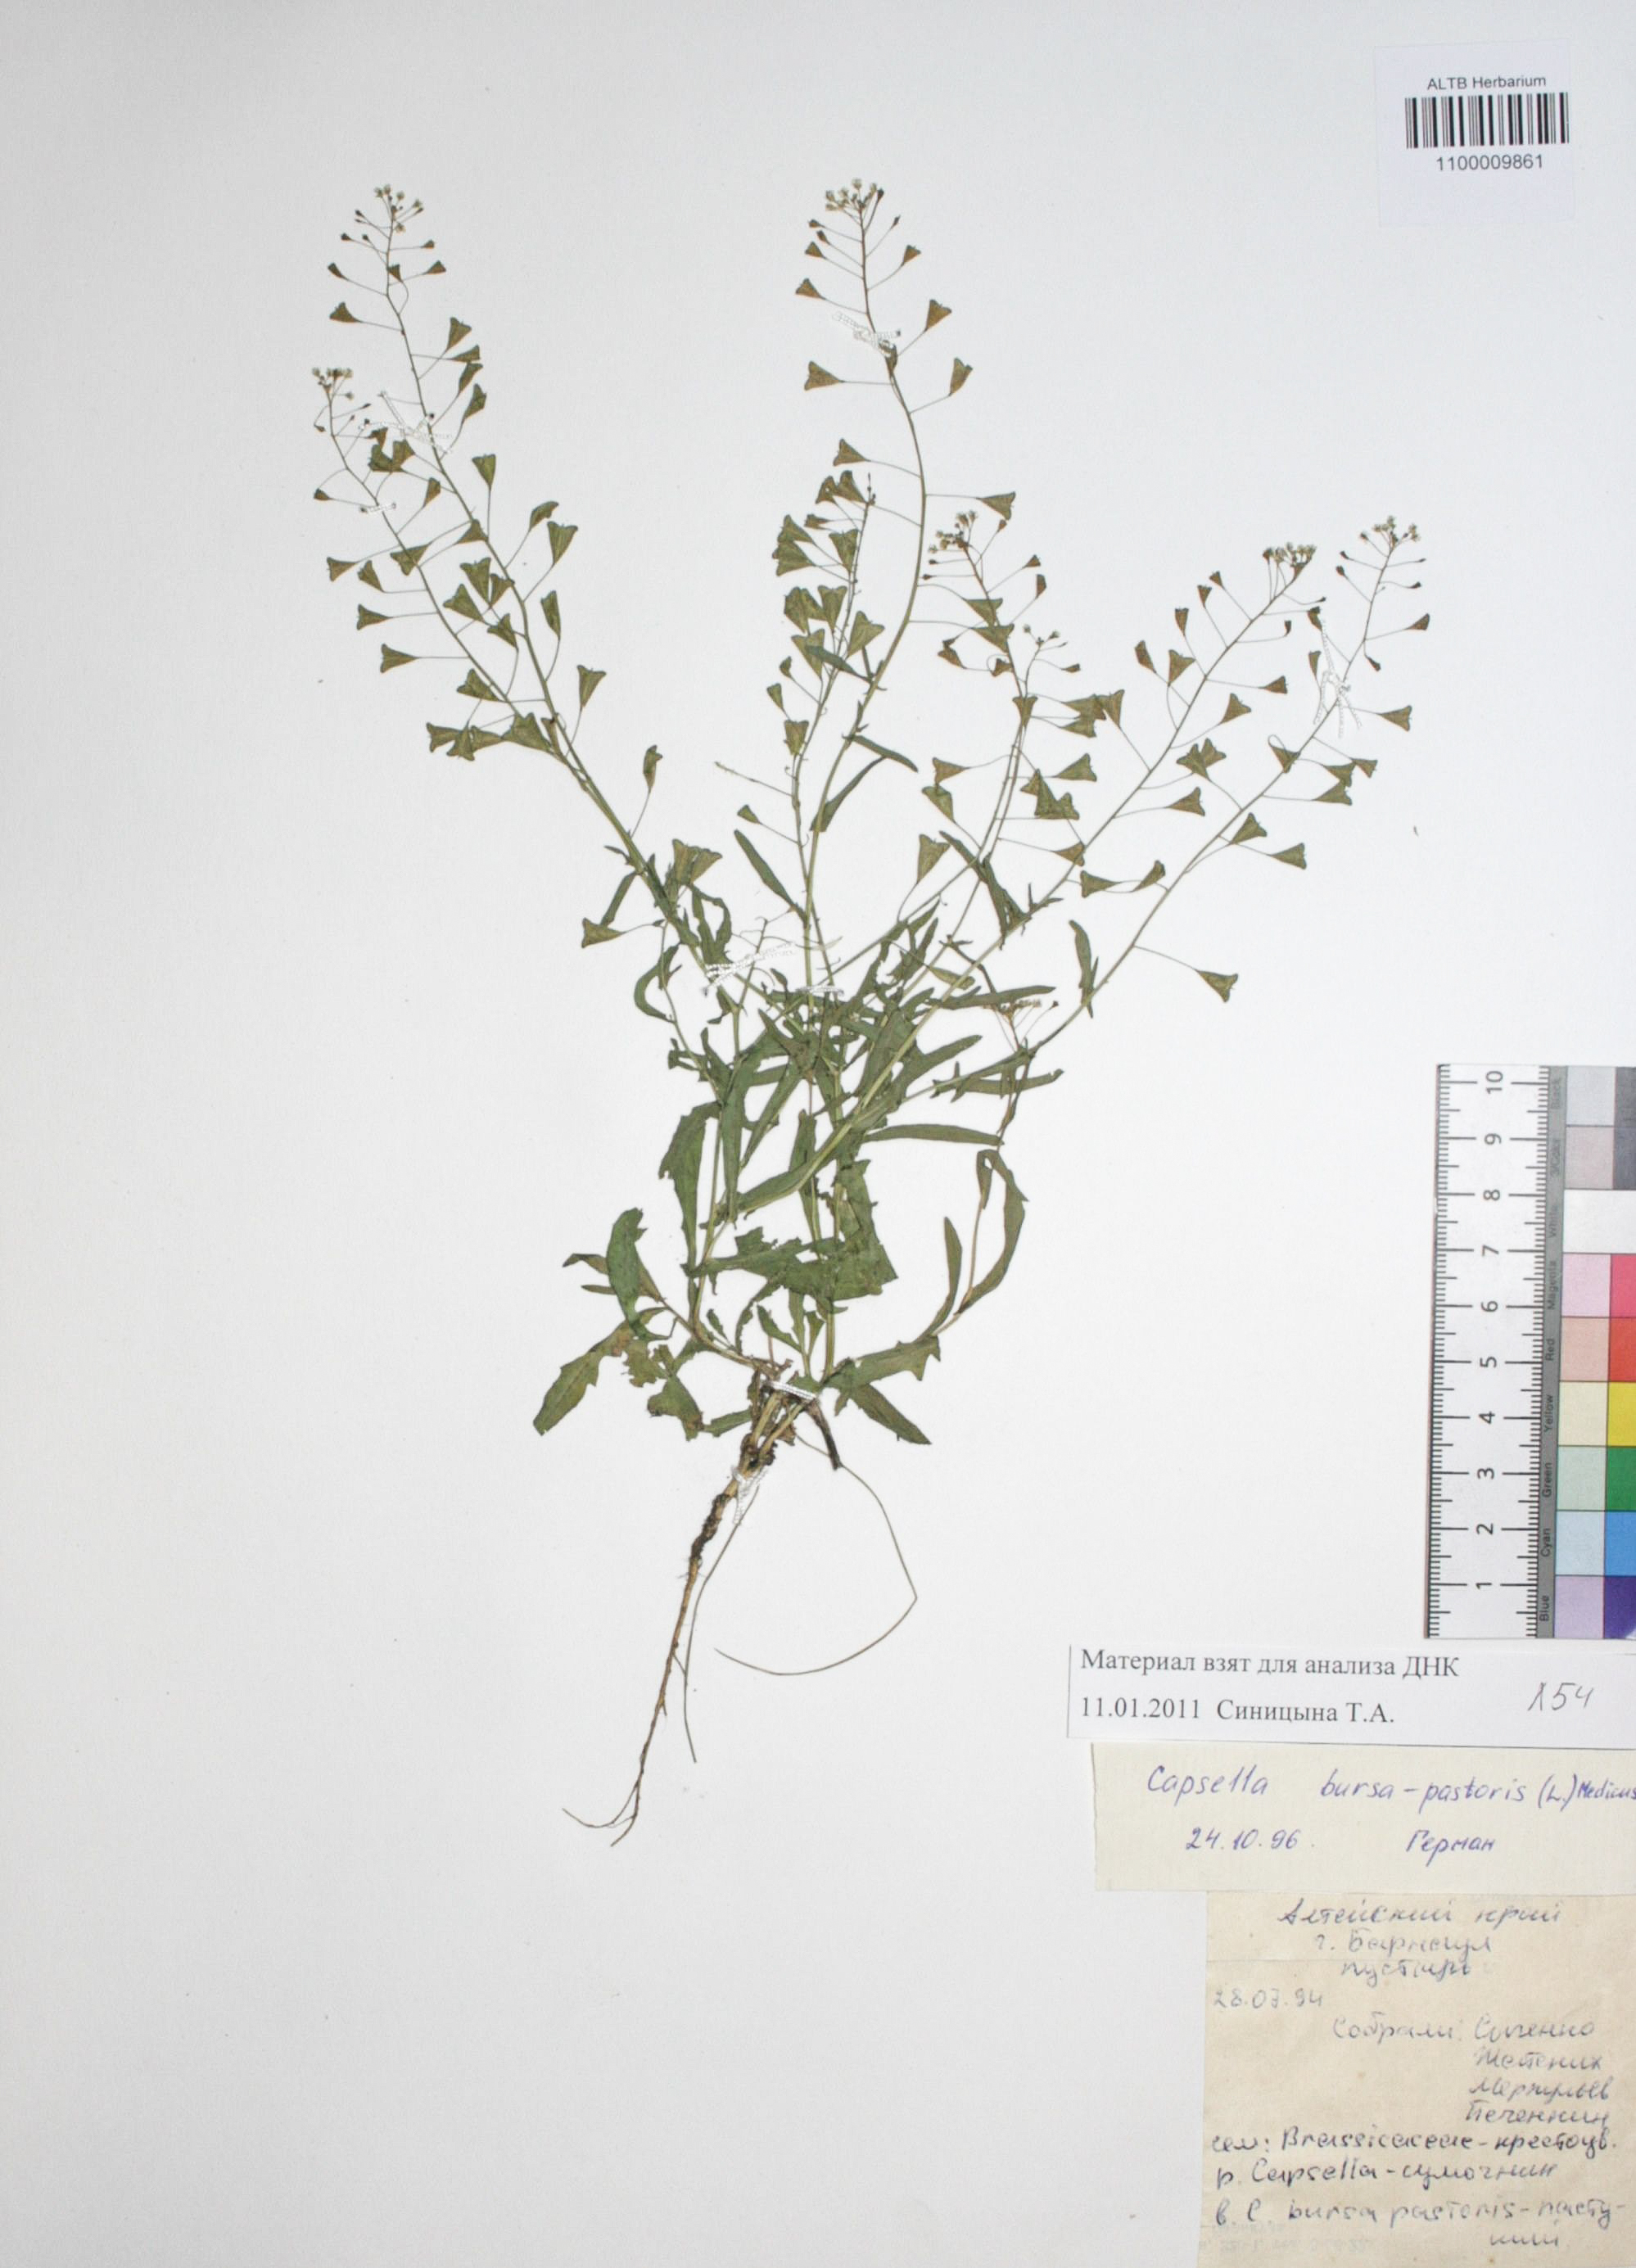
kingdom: Plantae
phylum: Tracheophyta
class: Magnoliopsida
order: Brassicales
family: Brassicaceae
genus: Capsella
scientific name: Capsella bursa-pastoris
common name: Shepherd's purse
